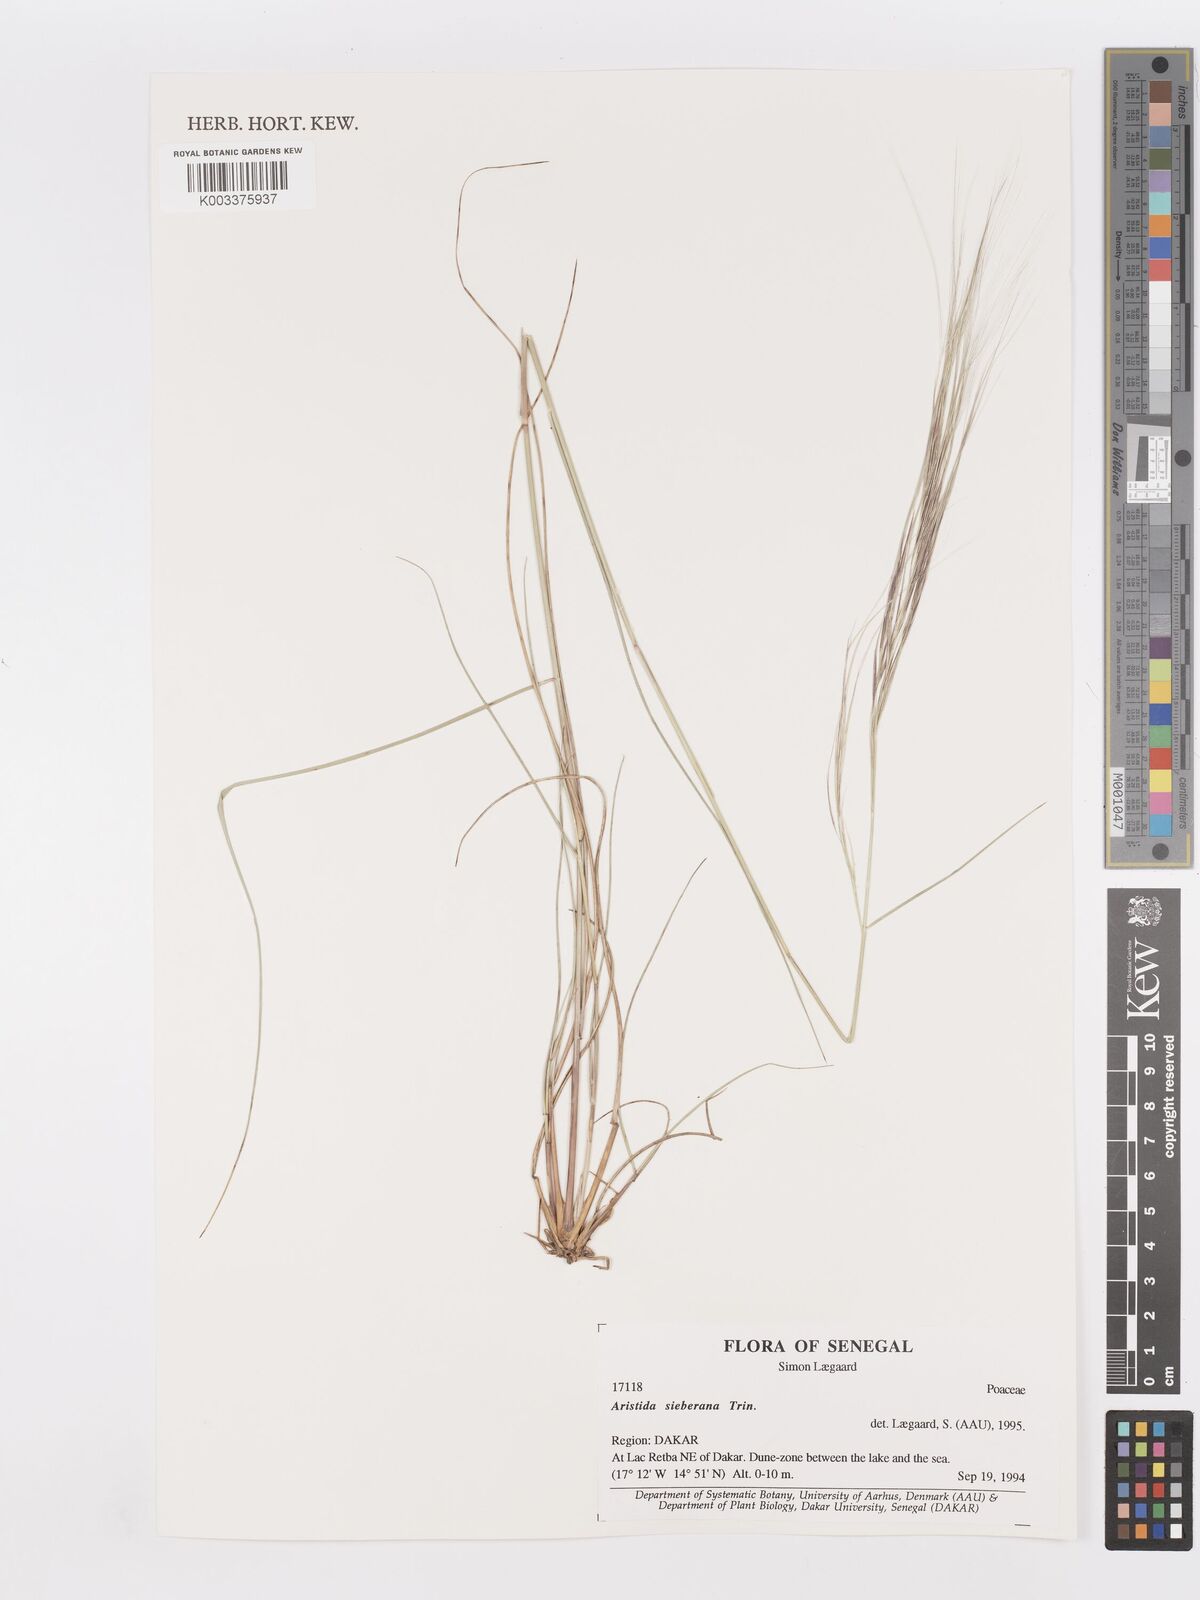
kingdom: Plantae
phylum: Tracheophyta
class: Liliopsida
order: Poales
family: Poaceae
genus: Aristida
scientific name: Aristida sieberiana
